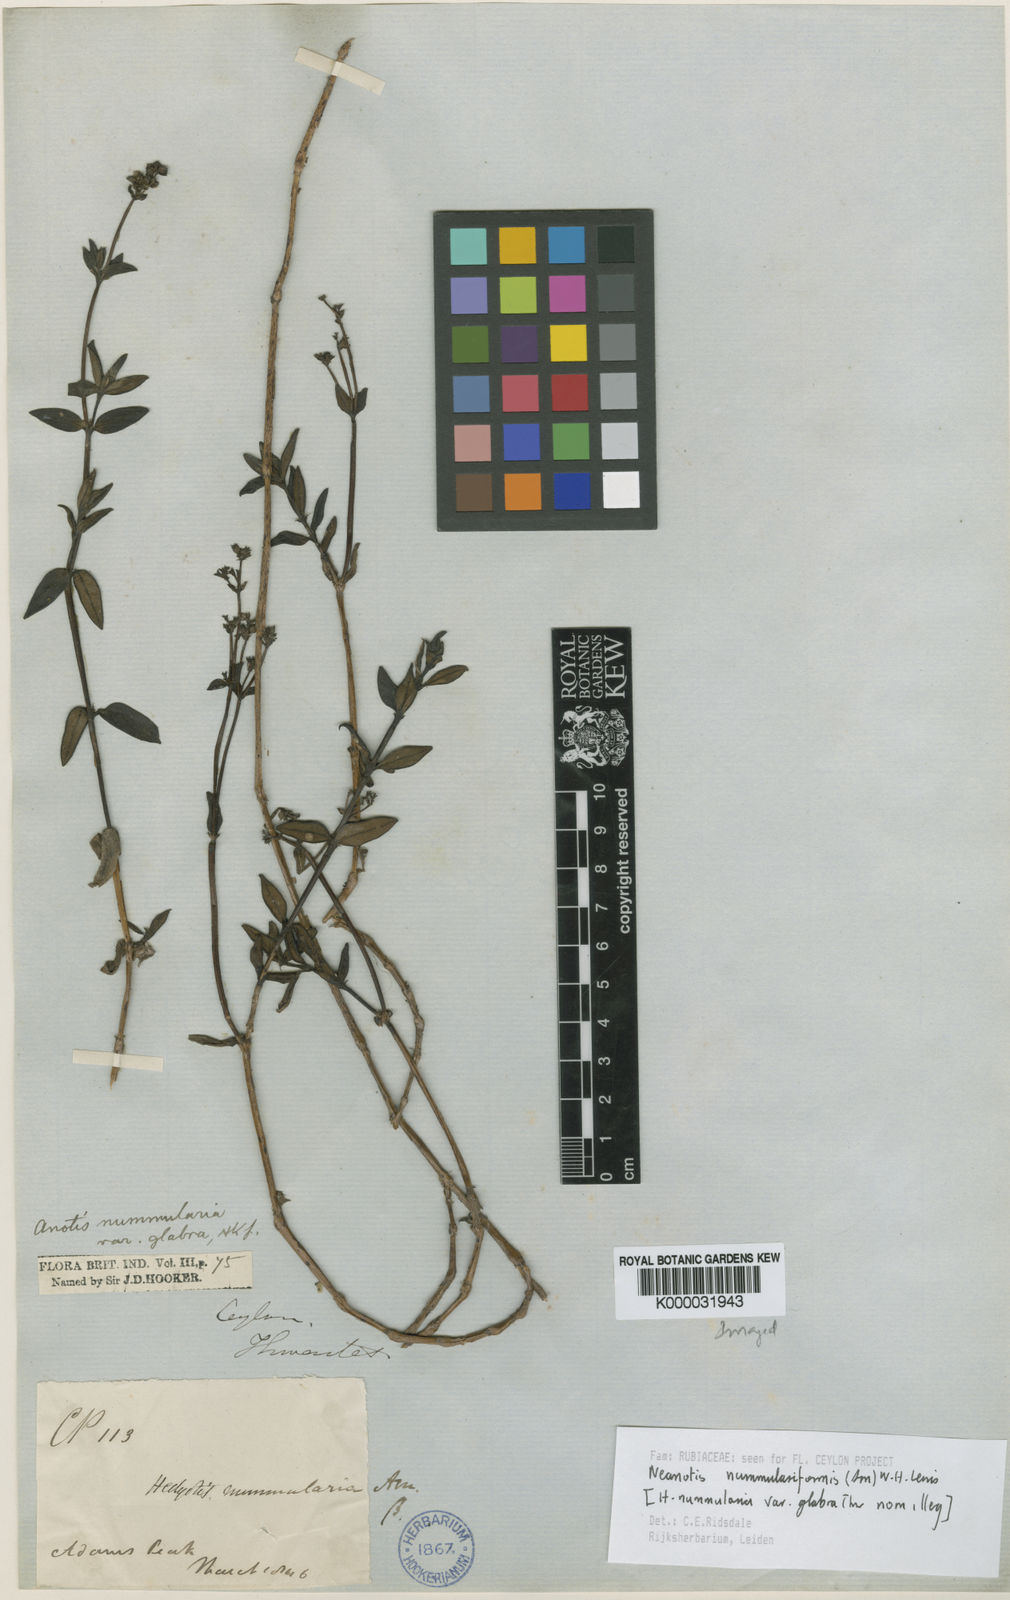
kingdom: Plantae
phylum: Tracheophyta
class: Magnoliopsida
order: Gentianales
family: Rubiaceae
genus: Neanotis
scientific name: Neanotis nummulariiformis
